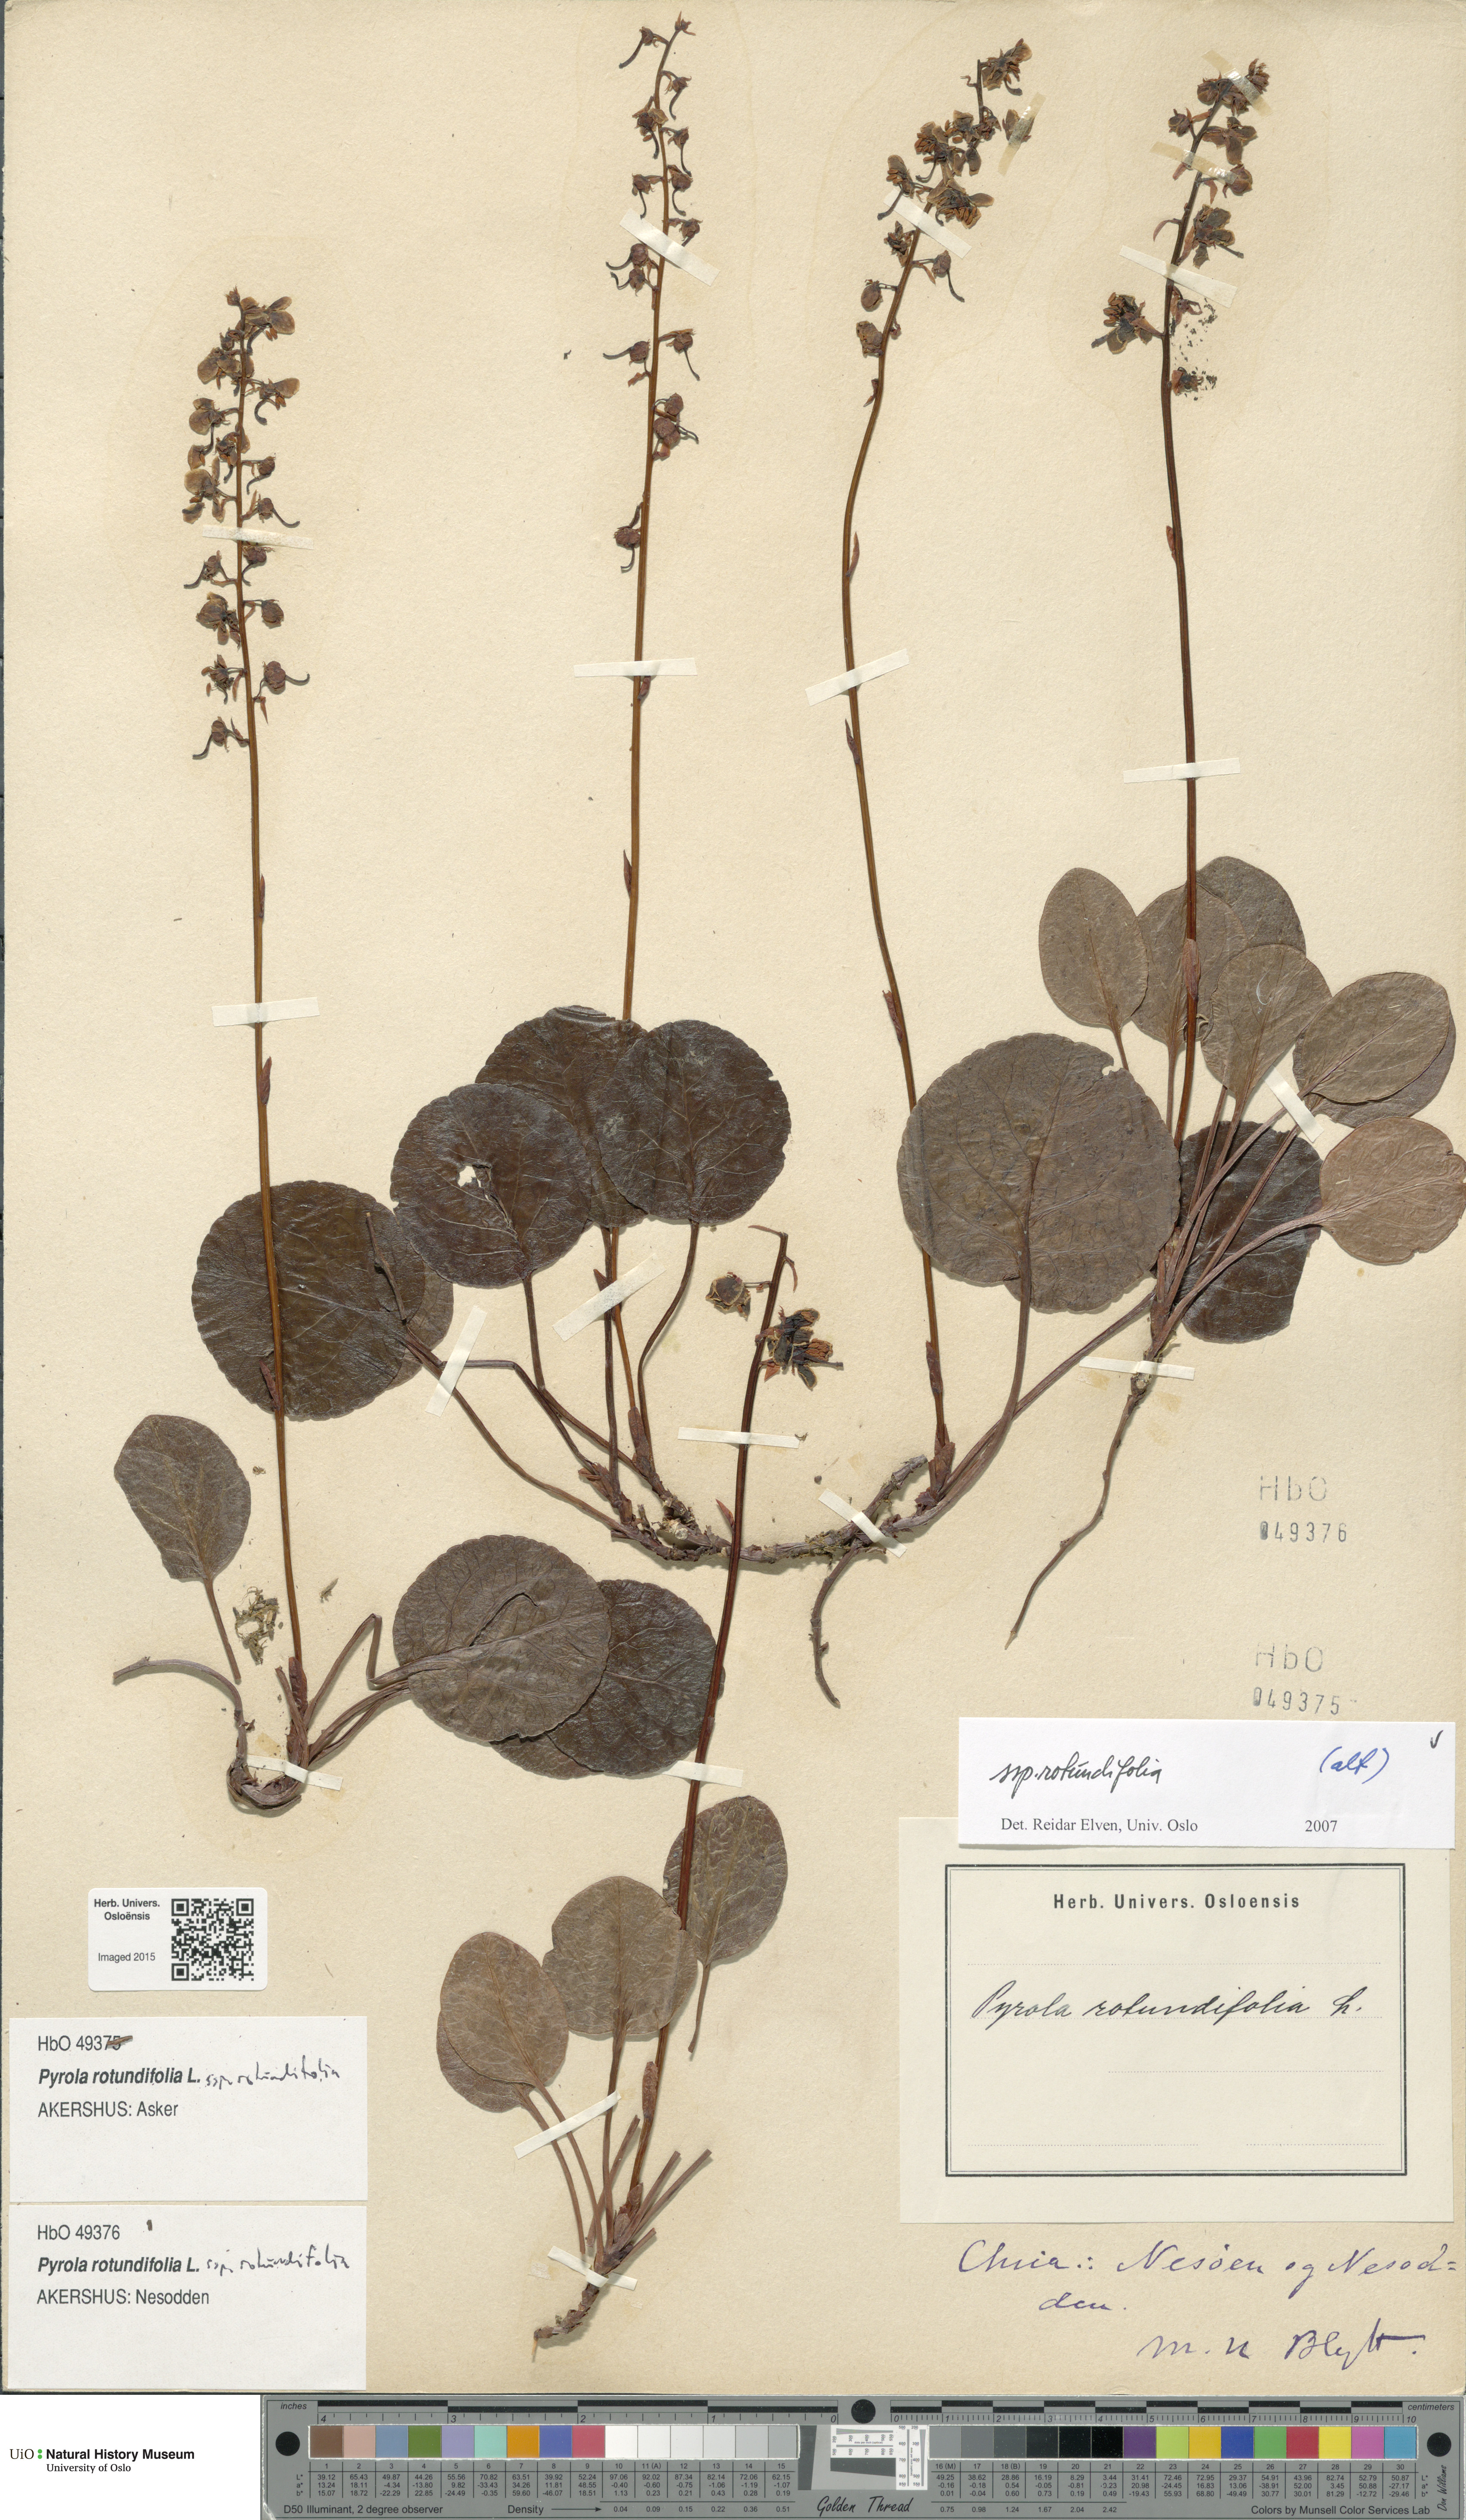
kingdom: Plantae
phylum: Tracheophyta
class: Magnoliopsida
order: Ericales
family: Ericaceae
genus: Pyrola
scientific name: Pyrola rotundifolia
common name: Round-leaved wintergreen
